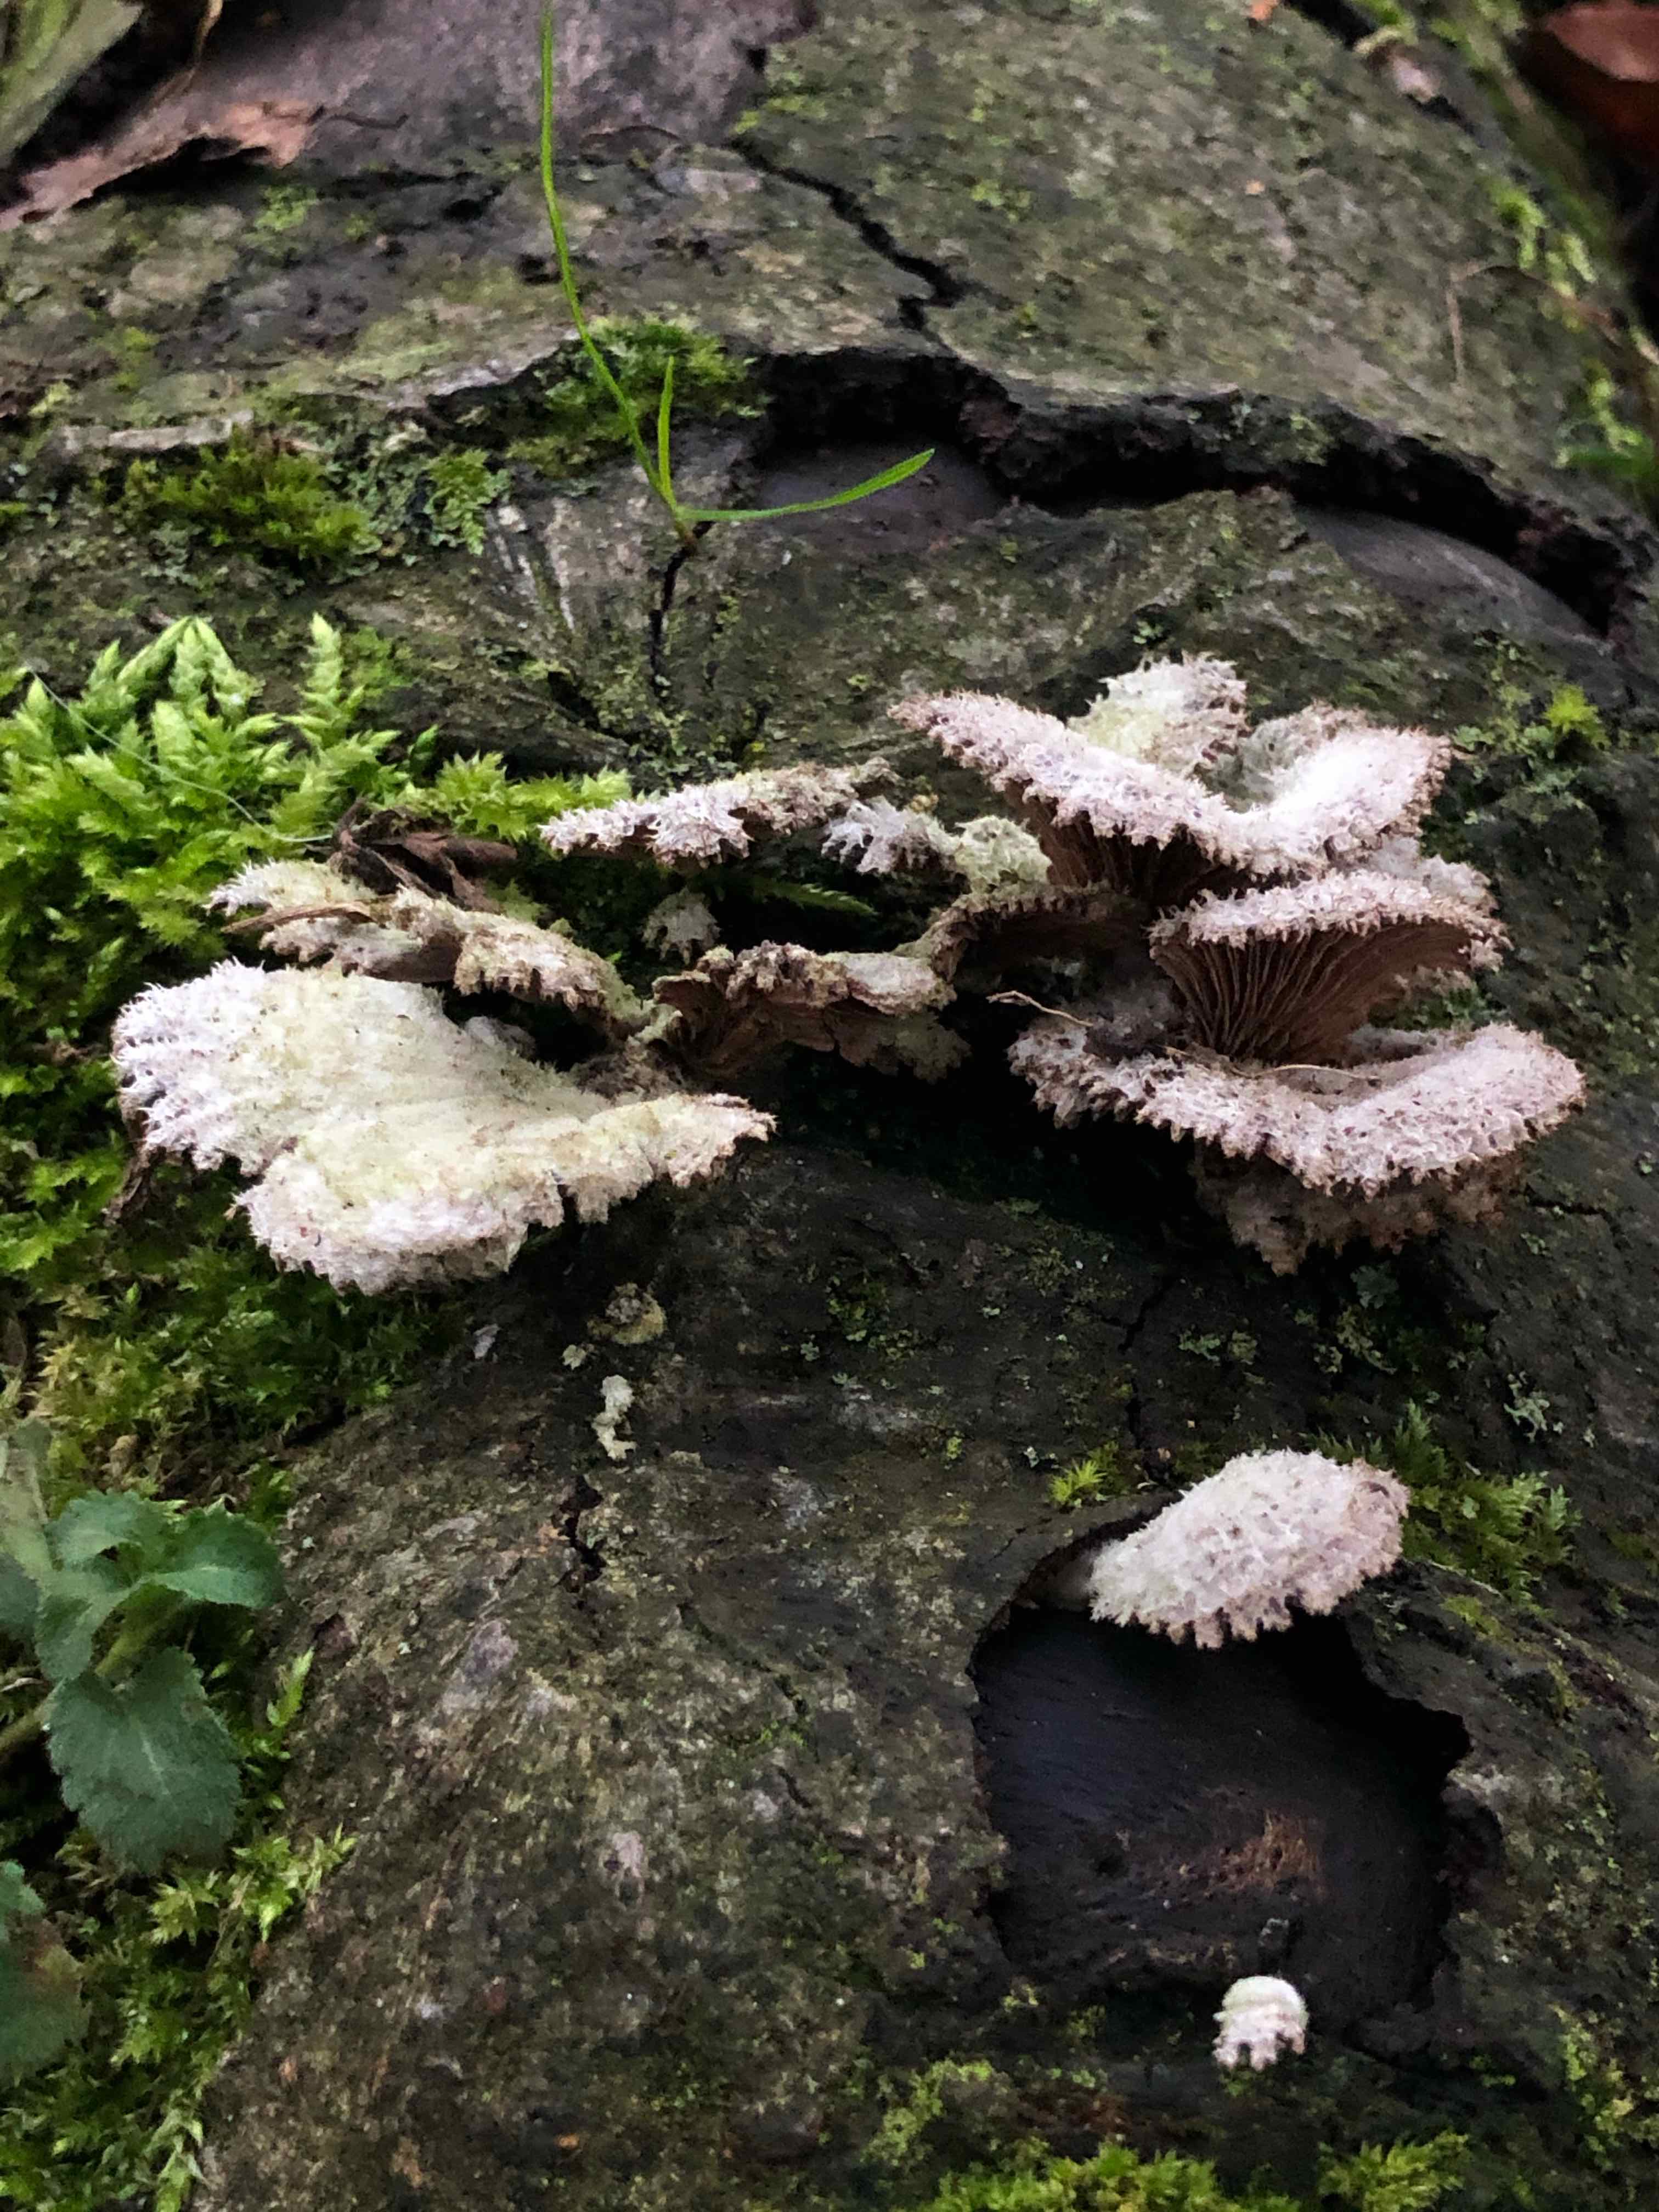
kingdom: Fungi
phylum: Basidiomycota
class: Agaricomycetes
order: Agaricales
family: Schizophyllaceae
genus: Schizophyllum
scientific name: Schizophyllum commune
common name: kløvblad
